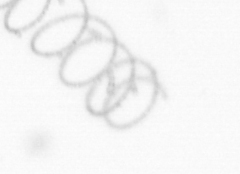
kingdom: Chromista
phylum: Ochrophyta
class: Bacillariophyceae
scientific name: Bacillariophyceae
